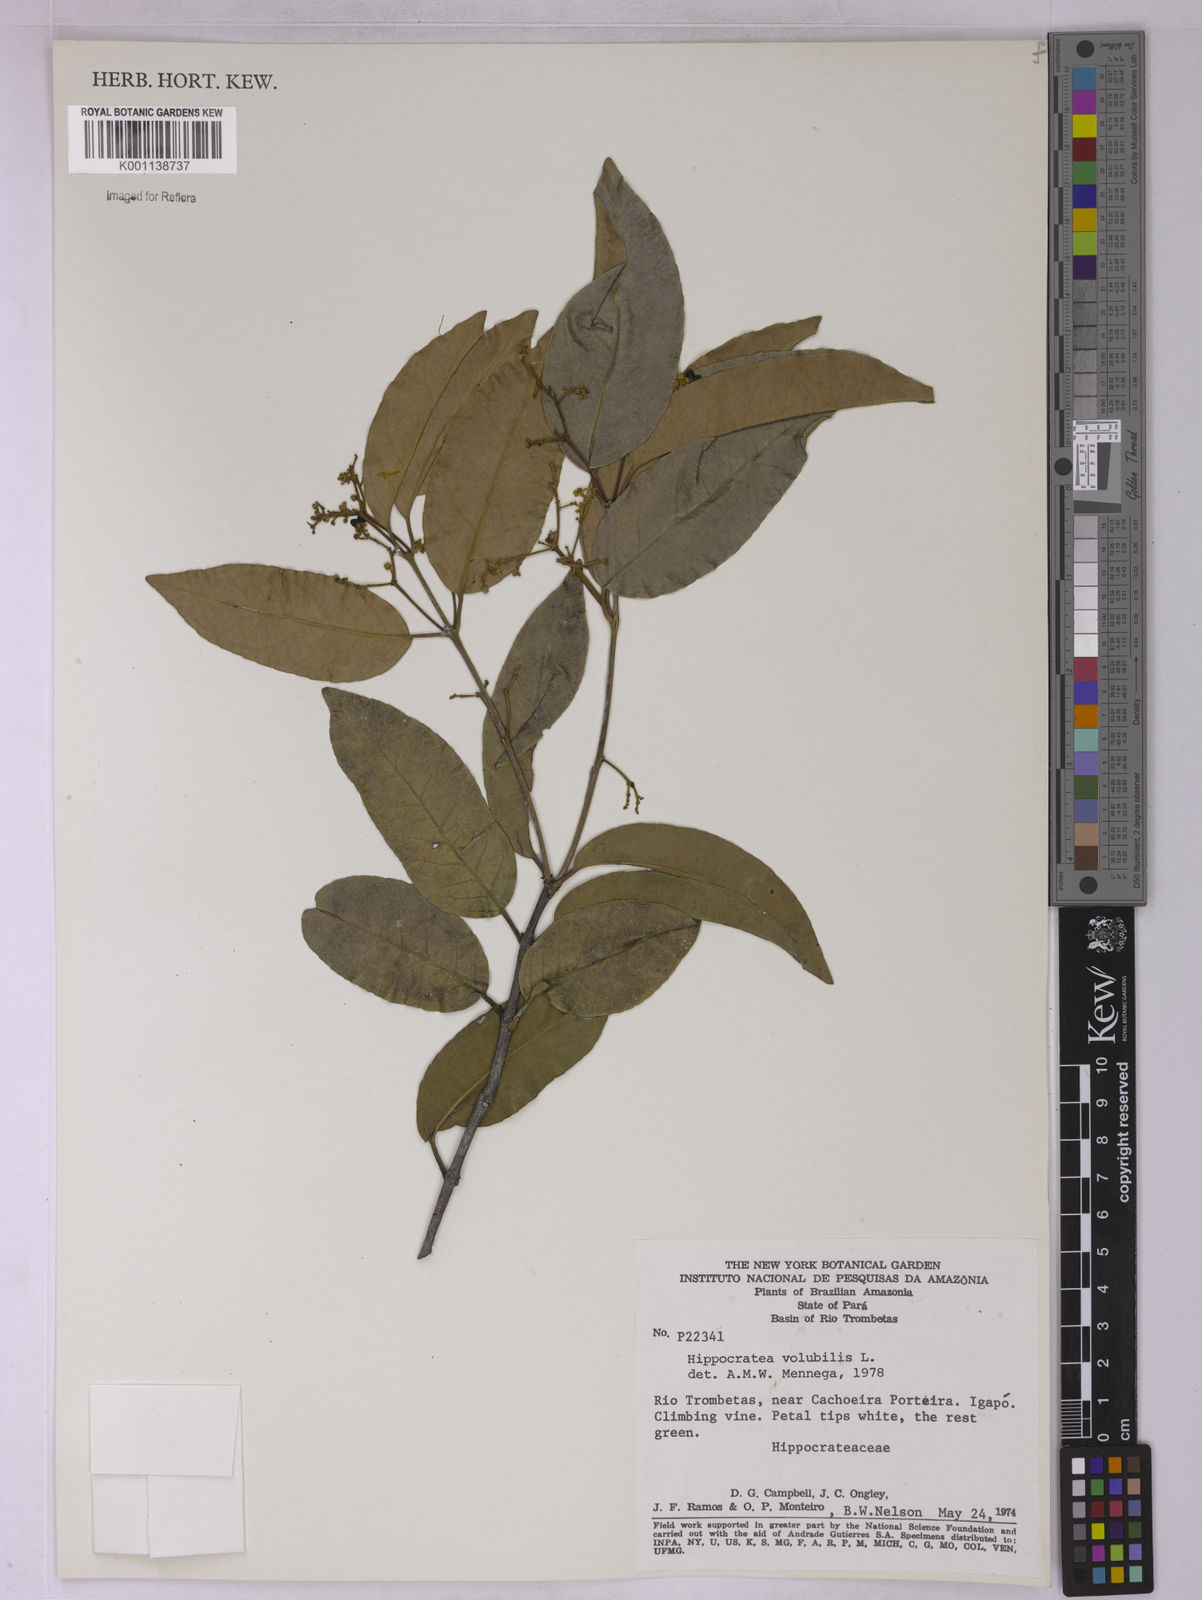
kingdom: Plantae
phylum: Tracheophyta
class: Magnoliopsida
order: Celastrales
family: Celastraceae
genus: Hippocratea
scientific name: Hippocratea volubilis
